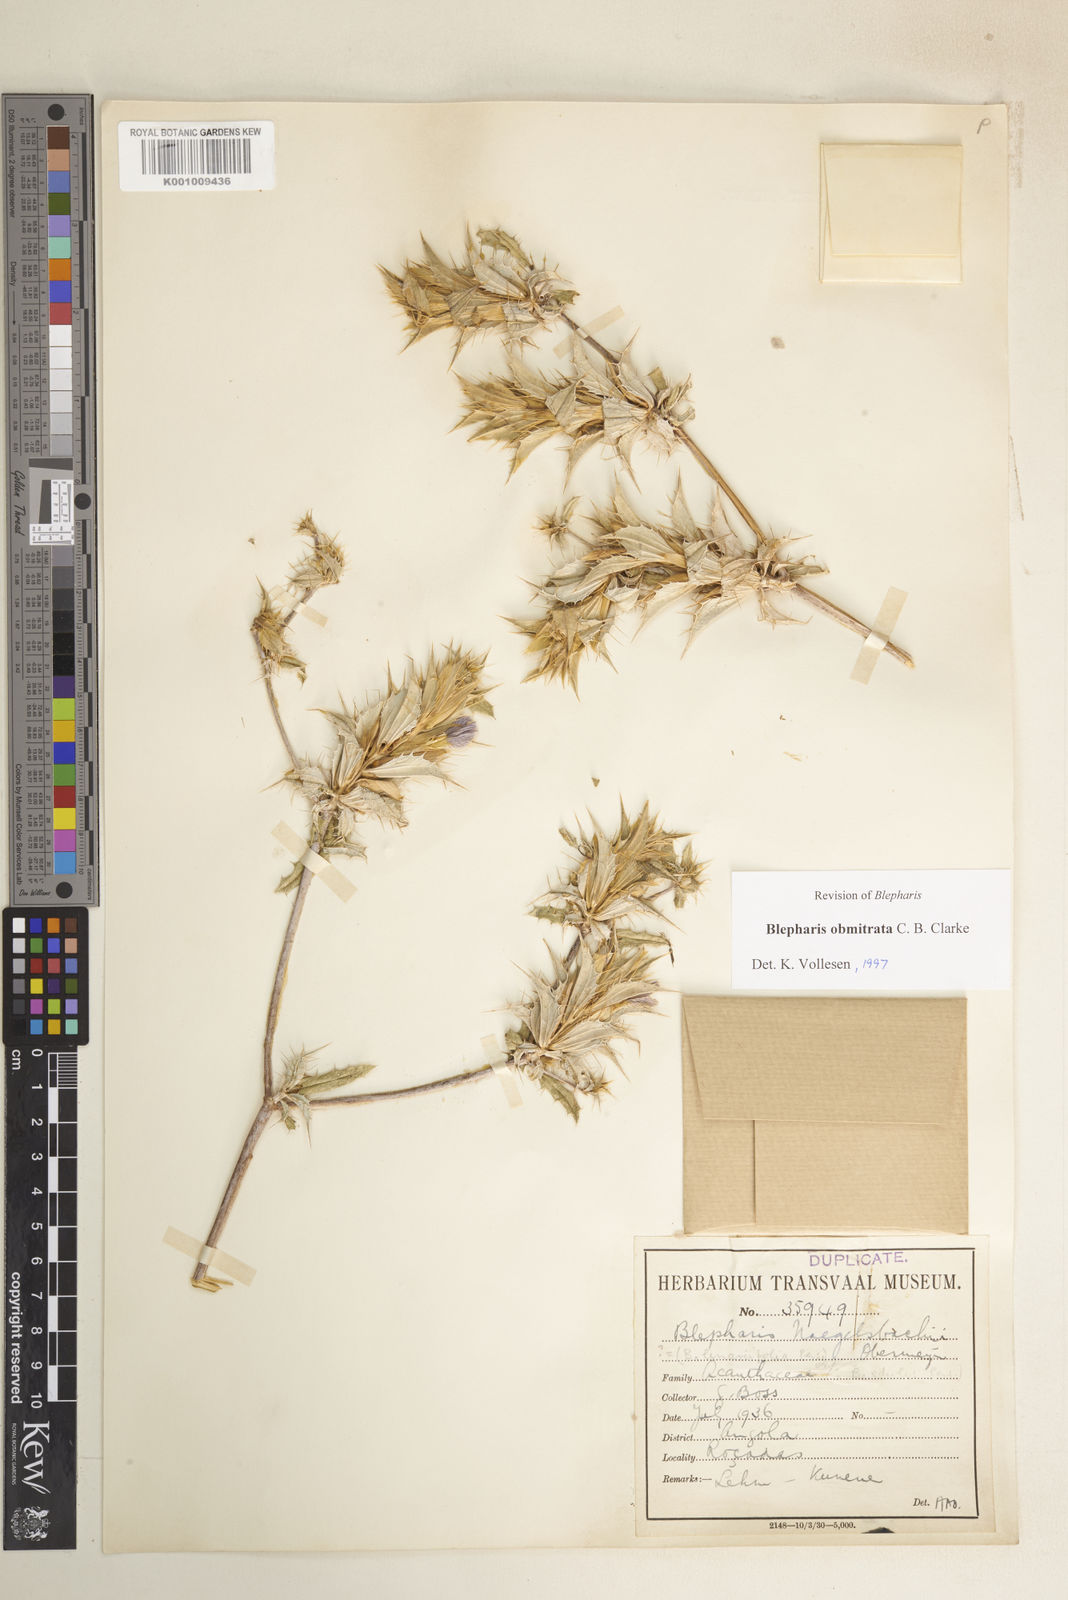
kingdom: Plantae
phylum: Tracheophyta
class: Magnoliopsida
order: Lamiales
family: Acanthaceae
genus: Blepharis
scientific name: Blepharis obmitrata
